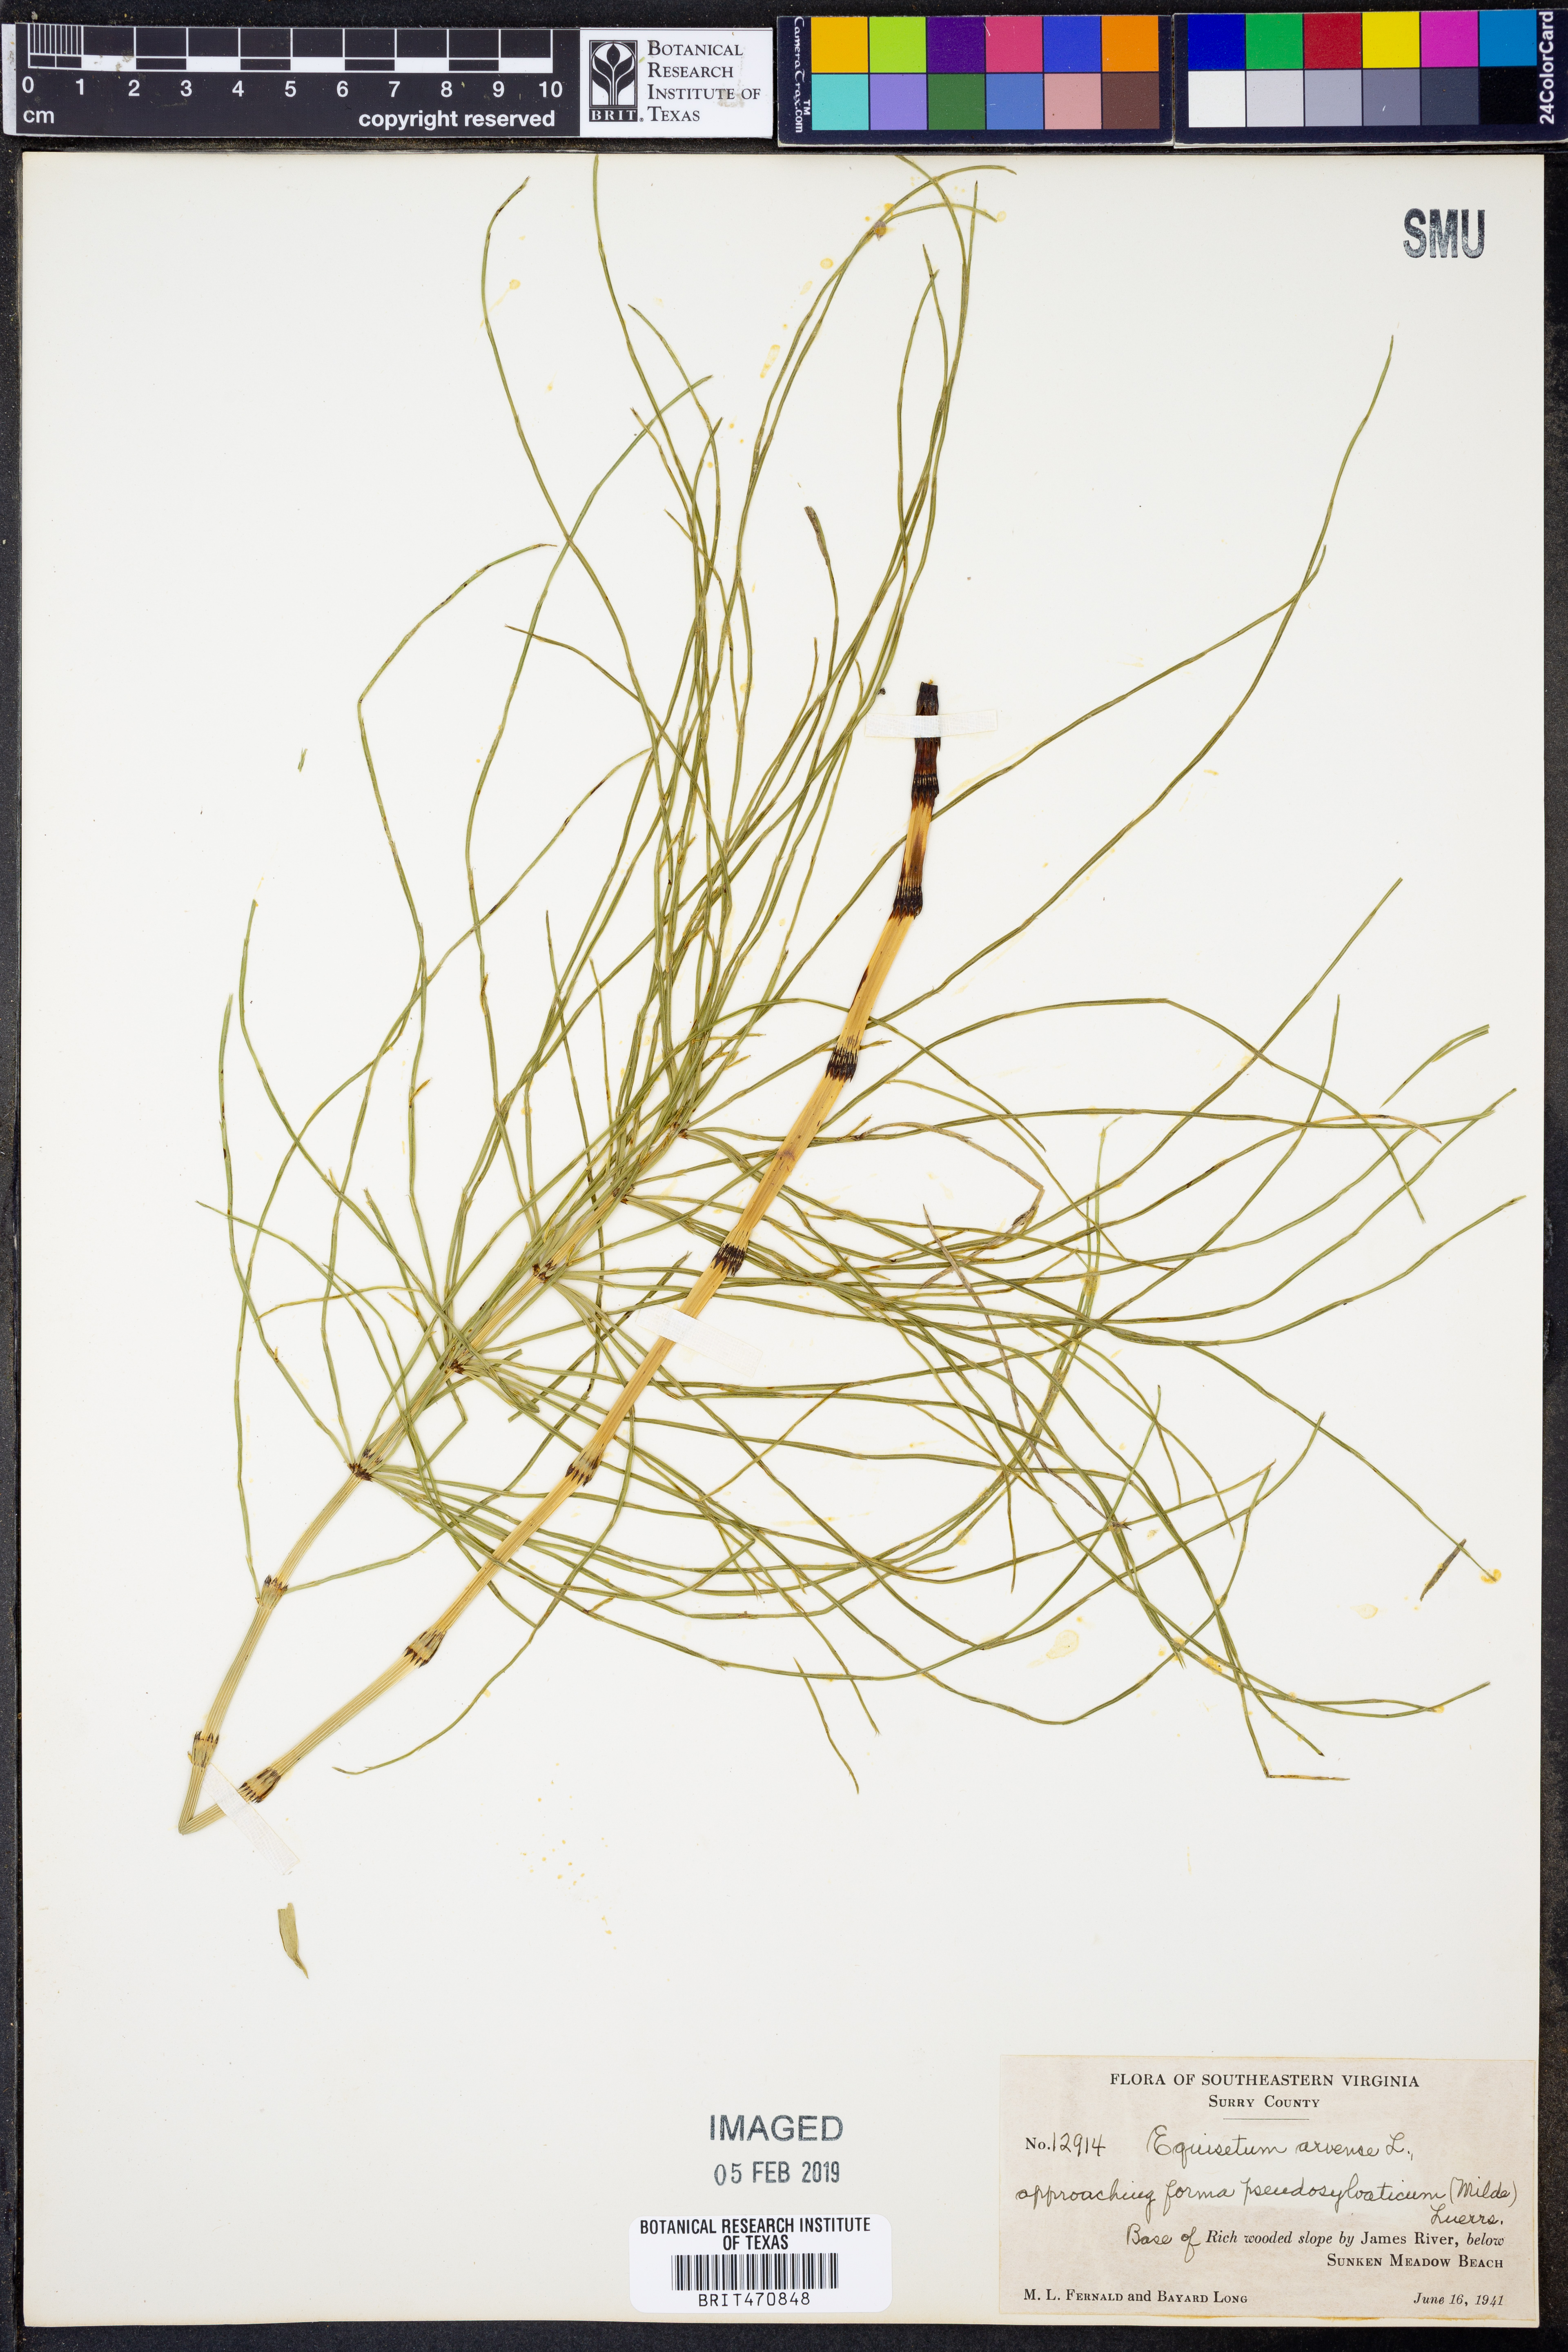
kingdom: Plantae
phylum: Tracheophyta
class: Polypodiopsida
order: Equisetales
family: Equisetaceae
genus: Equisetum
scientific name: Equisetum arvense
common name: Field horsetail
